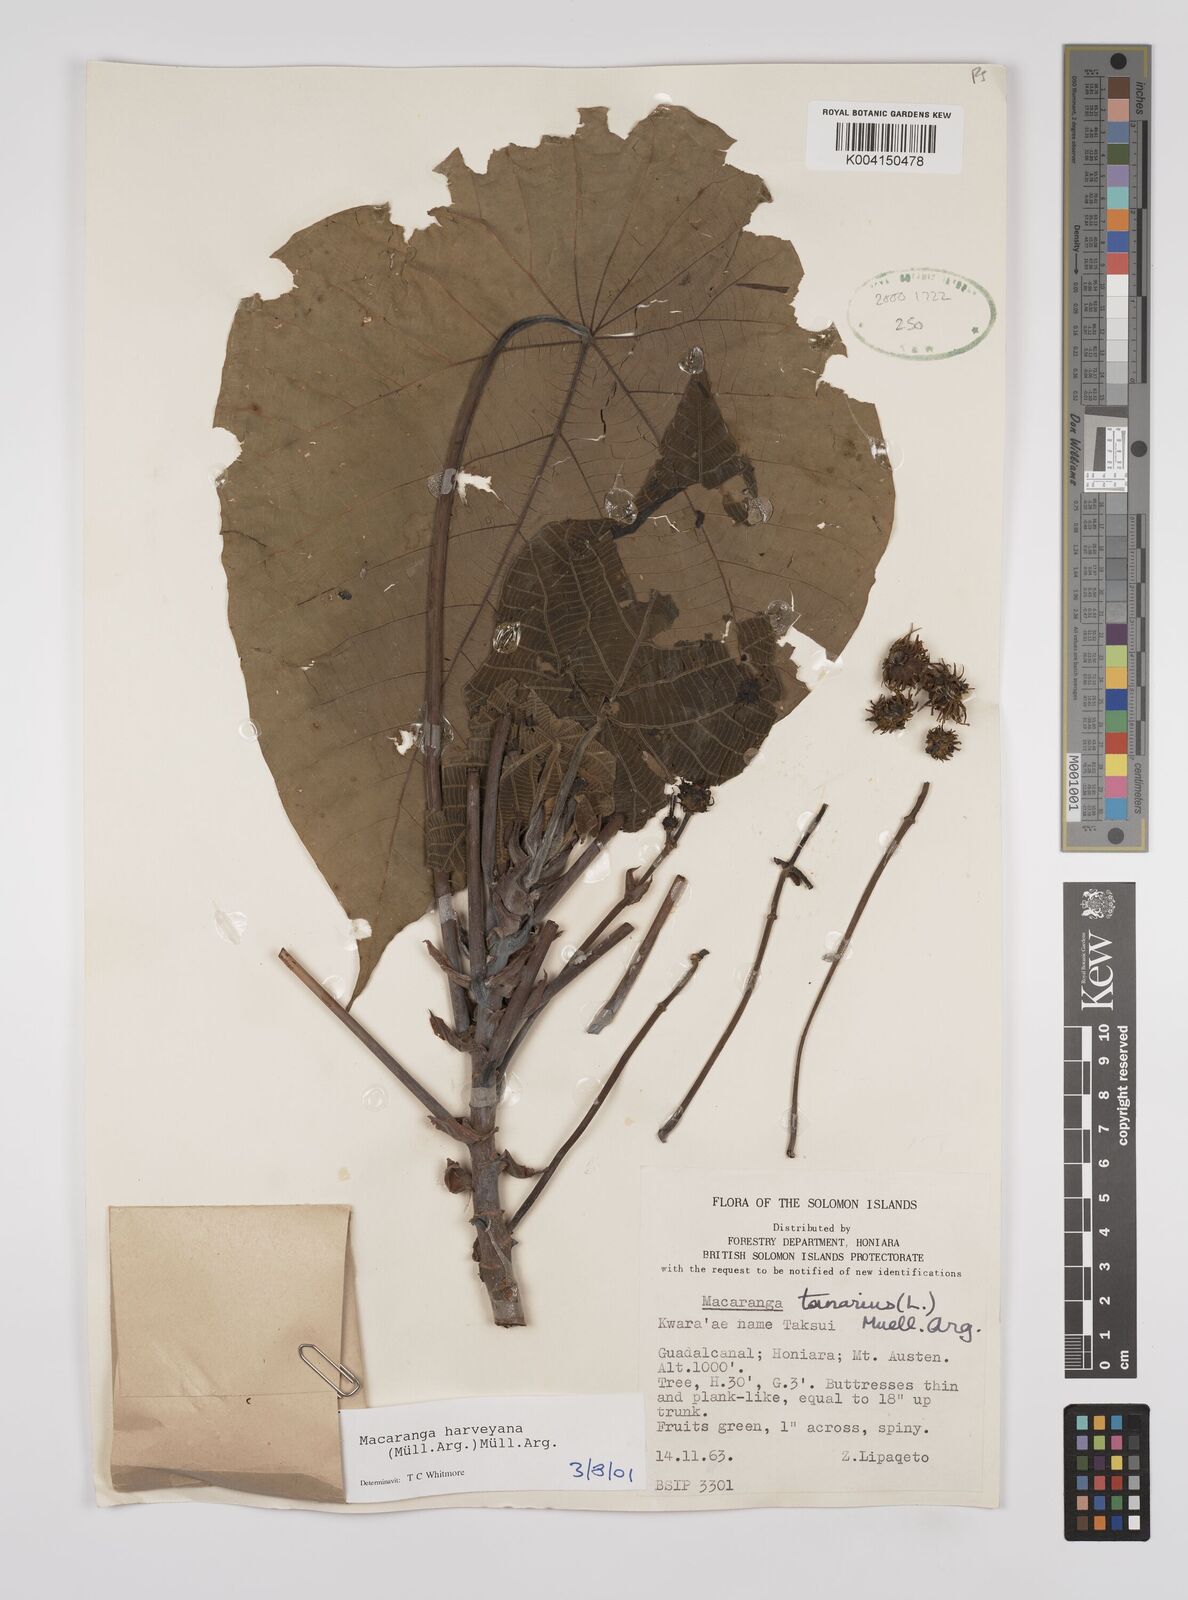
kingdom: Plantae
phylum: Tracheophyta
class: Magnoliopsida
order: Malpighiales
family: Euphorbiaceae
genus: Macaranga
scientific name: Macaranga harveyana
